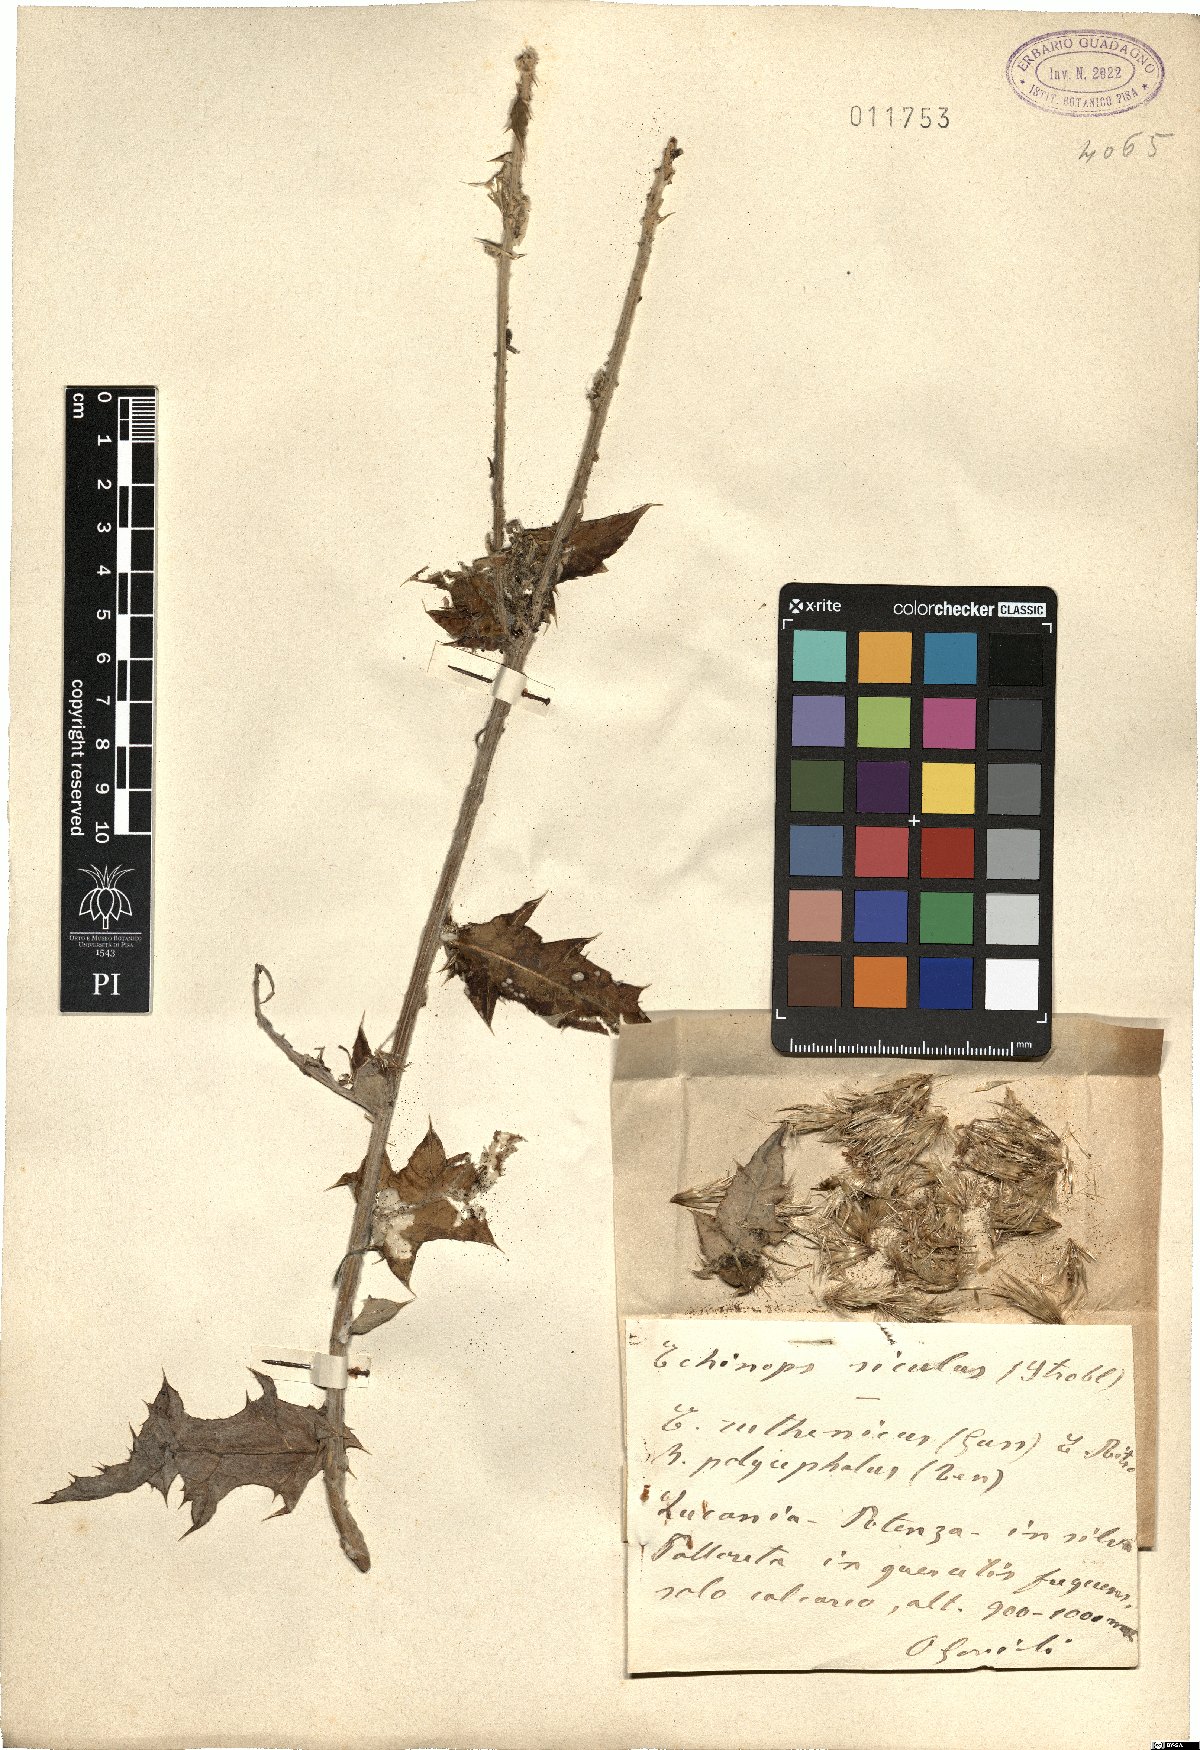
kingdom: Plantae
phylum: Tracheophyta
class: Magnoliopsida
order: Asterales
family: Asteraceae
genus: Echinops
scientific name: Echinops ritro
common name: Globe thistle
